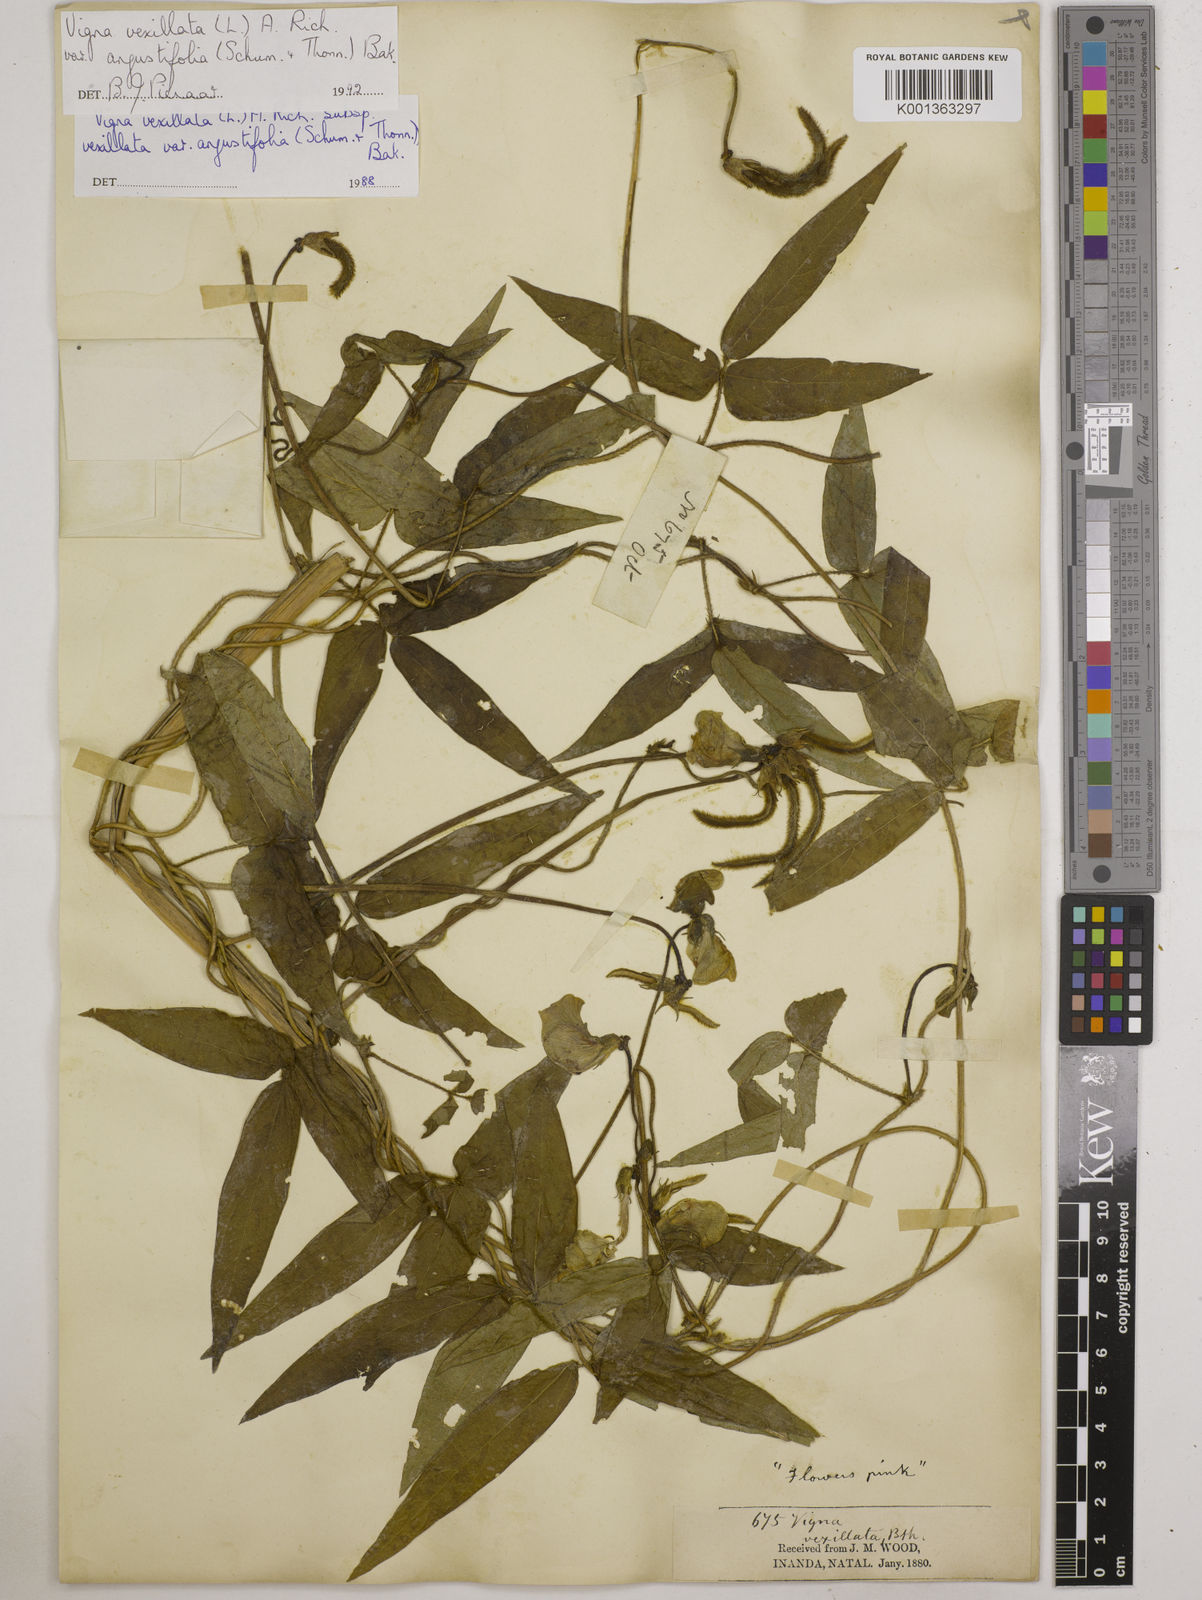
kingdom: Plantae
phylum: Tracheophyta
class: Magnoliopsida
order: Fabales
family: Fabaceae
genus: Vigna
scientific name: Vigna vexillata
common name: Zombi pea
